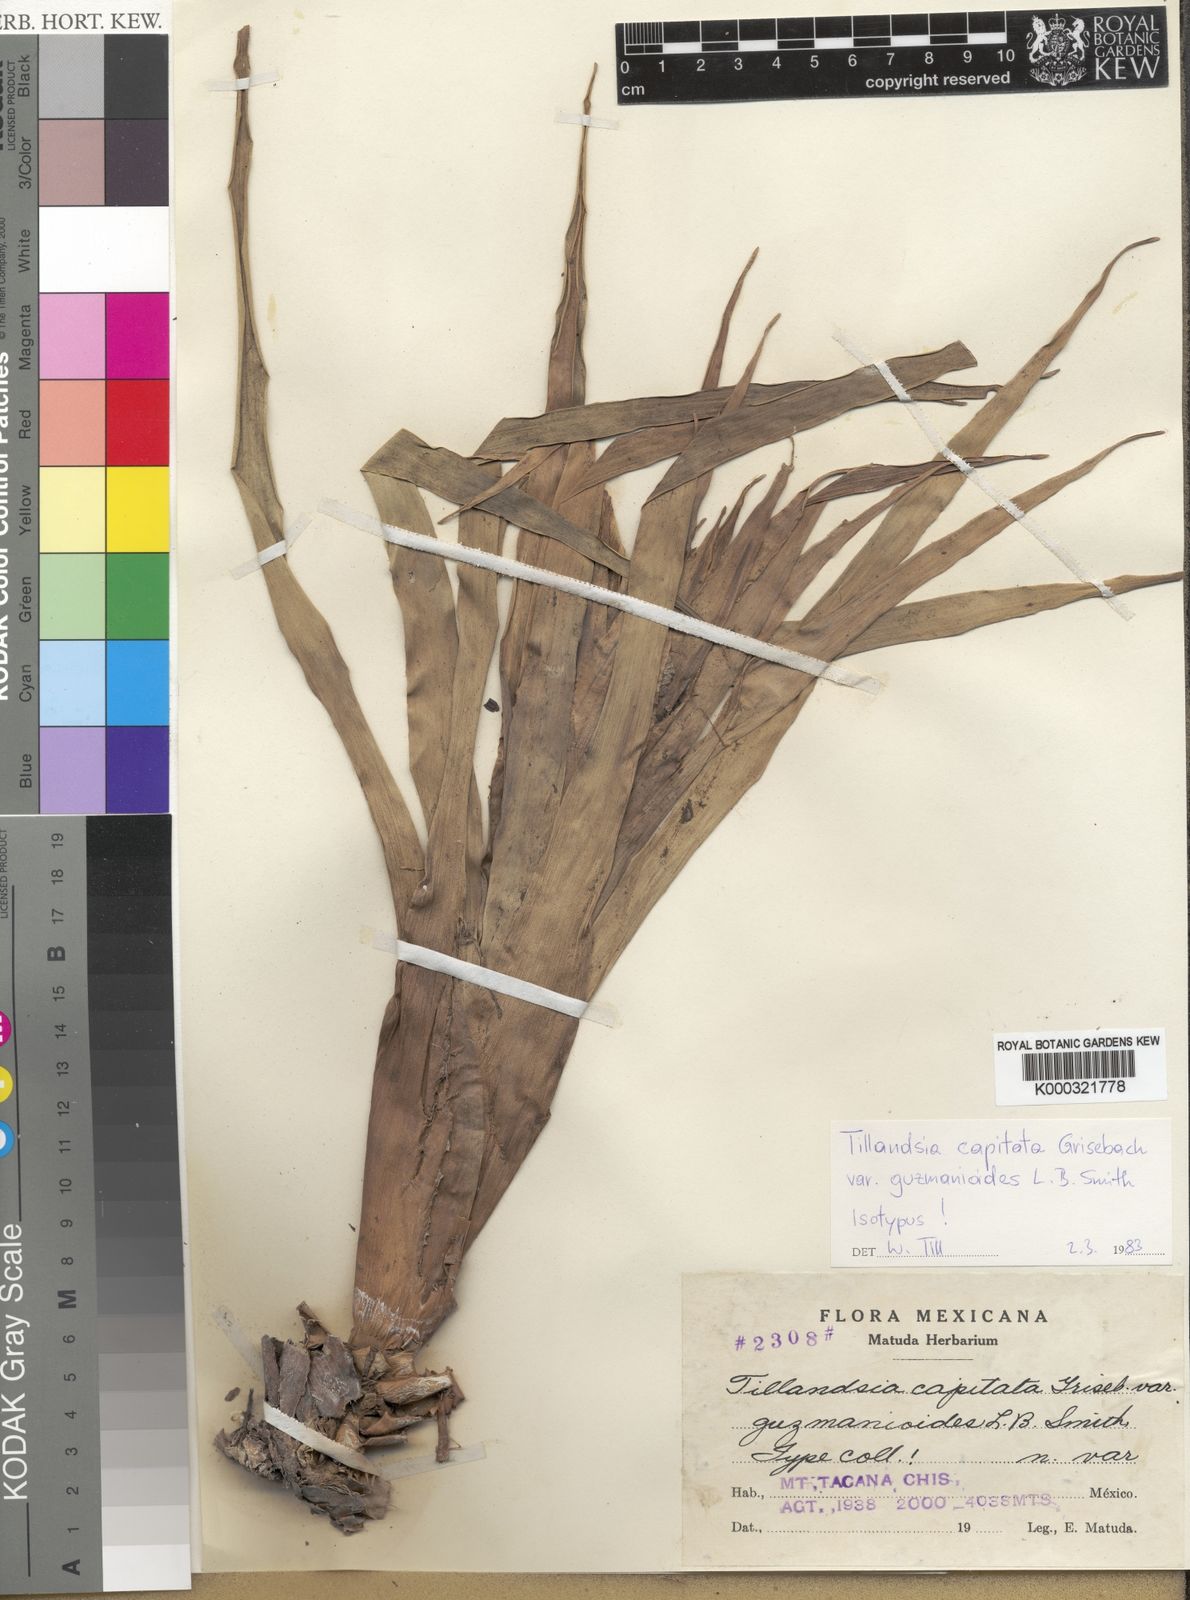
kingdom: Plantae
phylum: Tracheophyta
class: Liliopsida
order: Poales
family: Bromeliaceae
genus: Tillandsia
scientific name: Tillandsia lautneri
